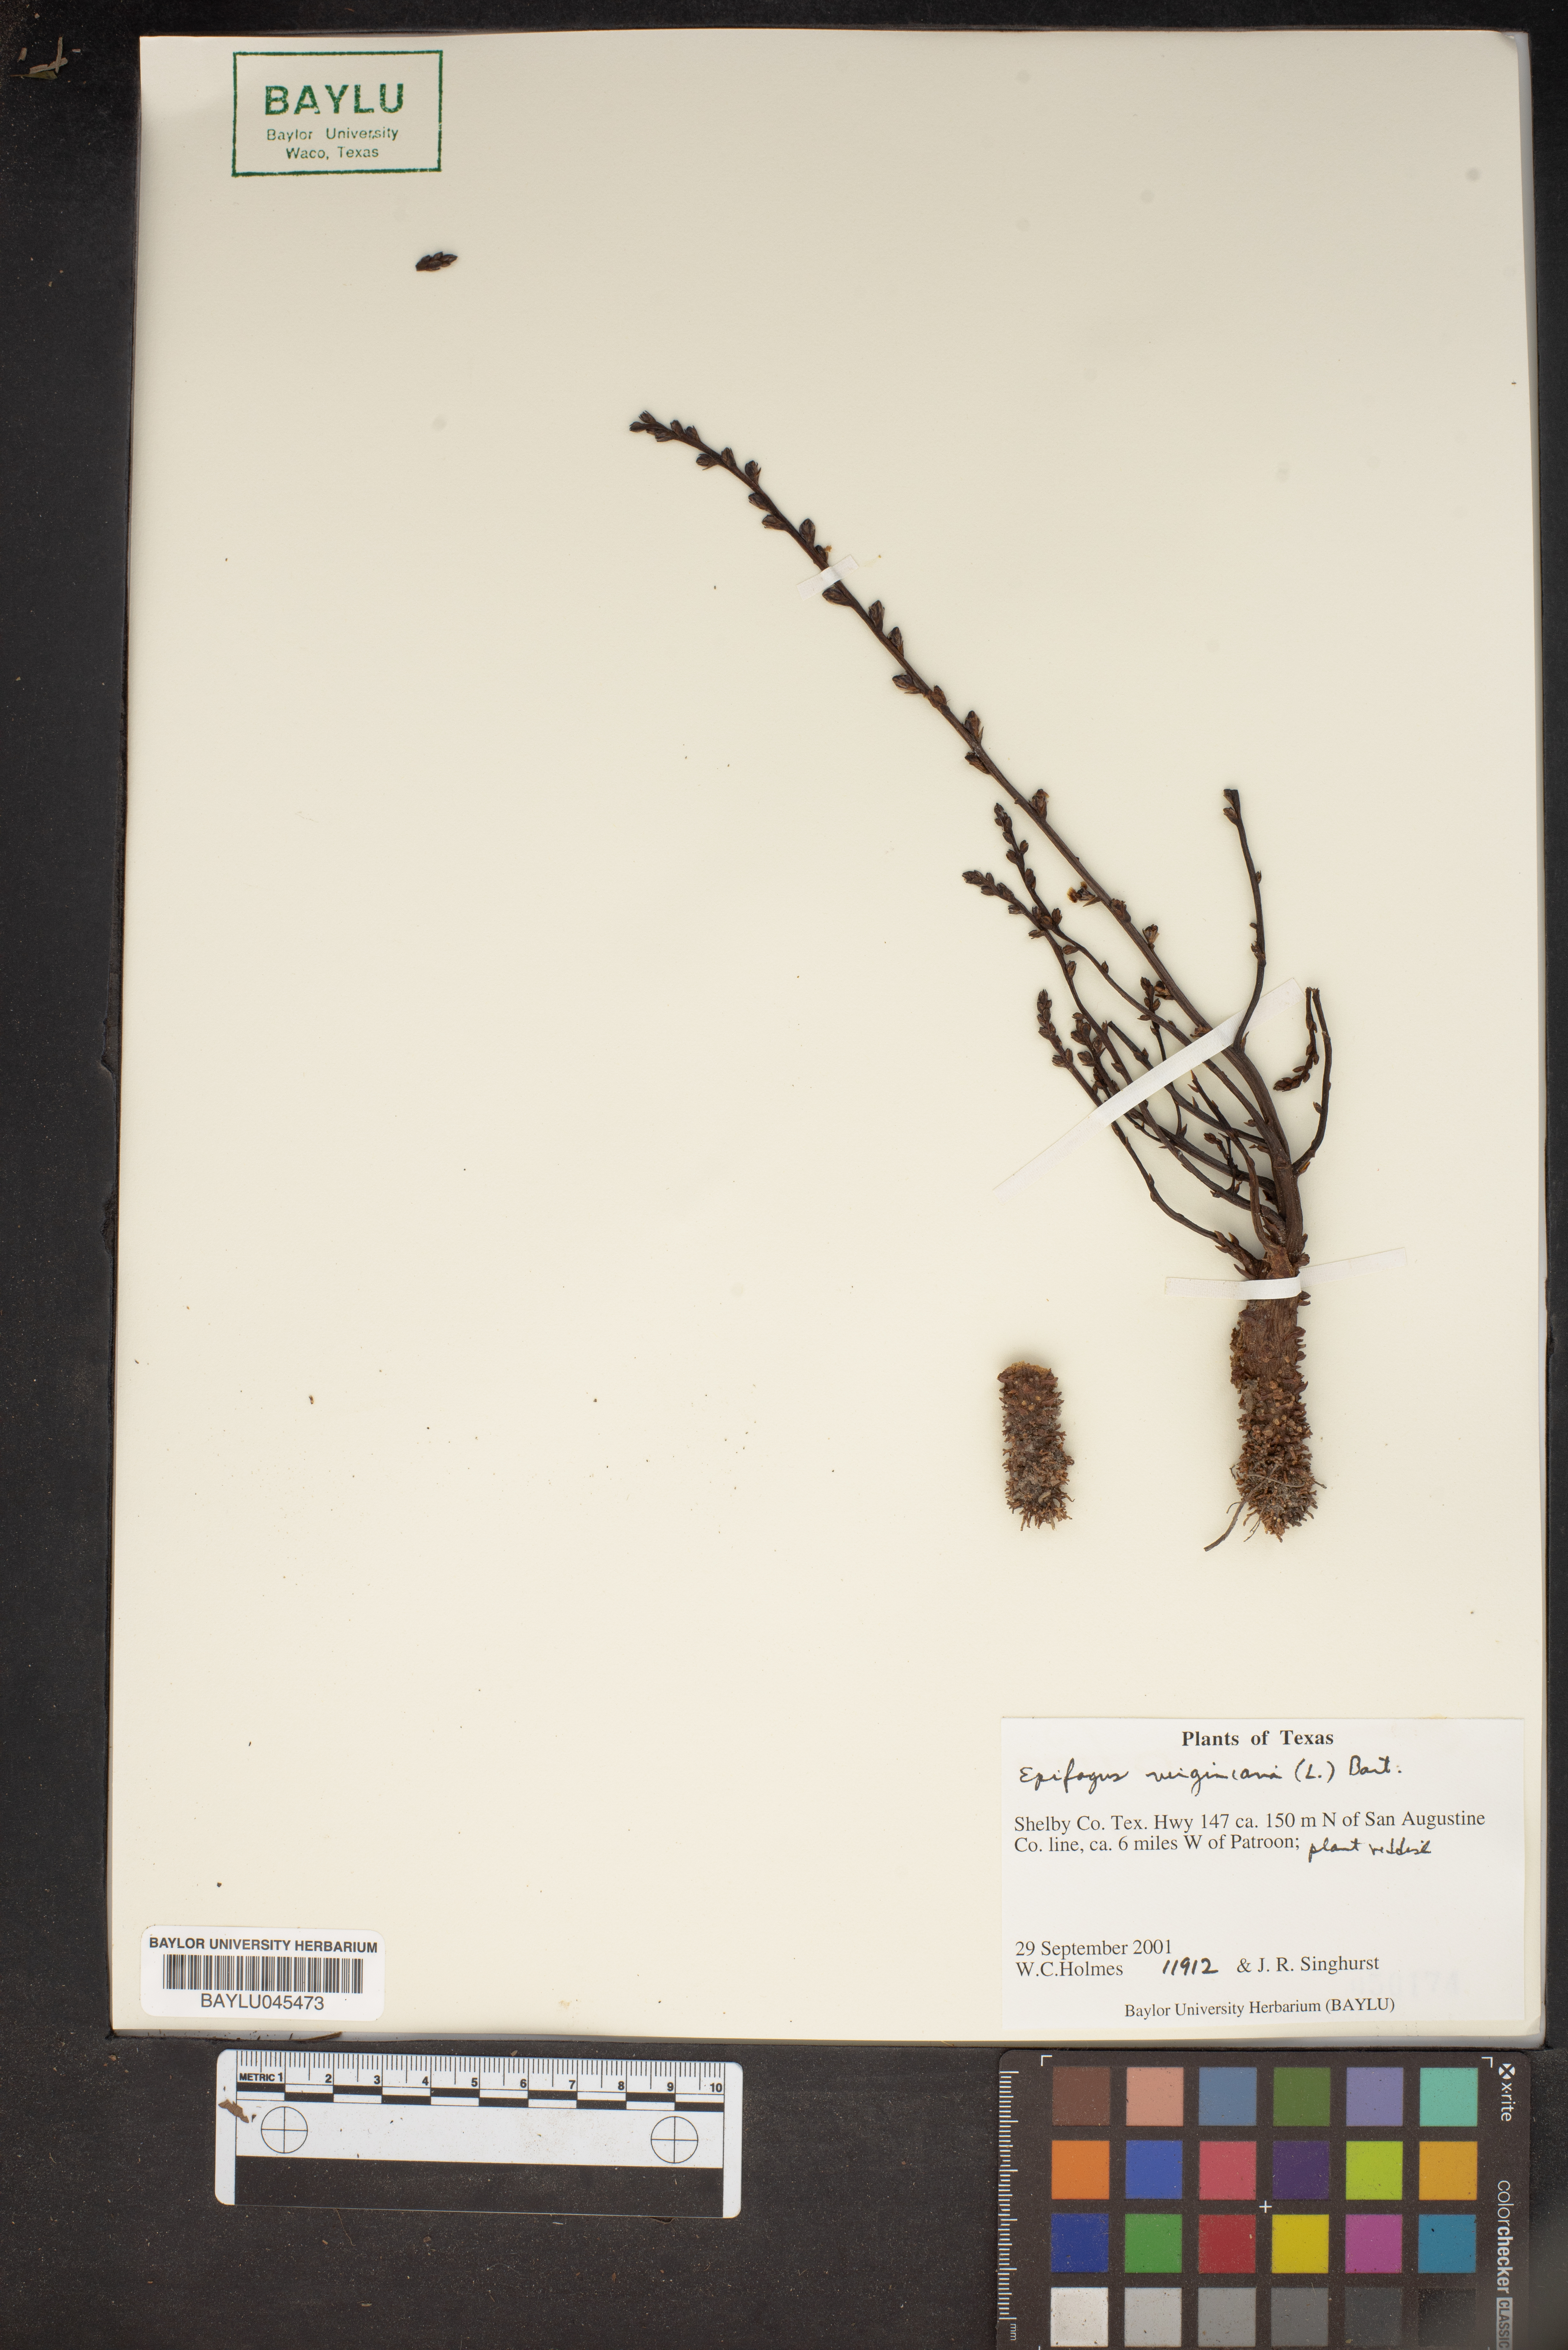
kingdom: Plantae
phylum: Tracheophyta
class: Magnoliopsida
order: Lamiales
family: Orobanchaceae
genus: Epifagus
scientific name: Epifagus virginiana
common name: Beechdrops
